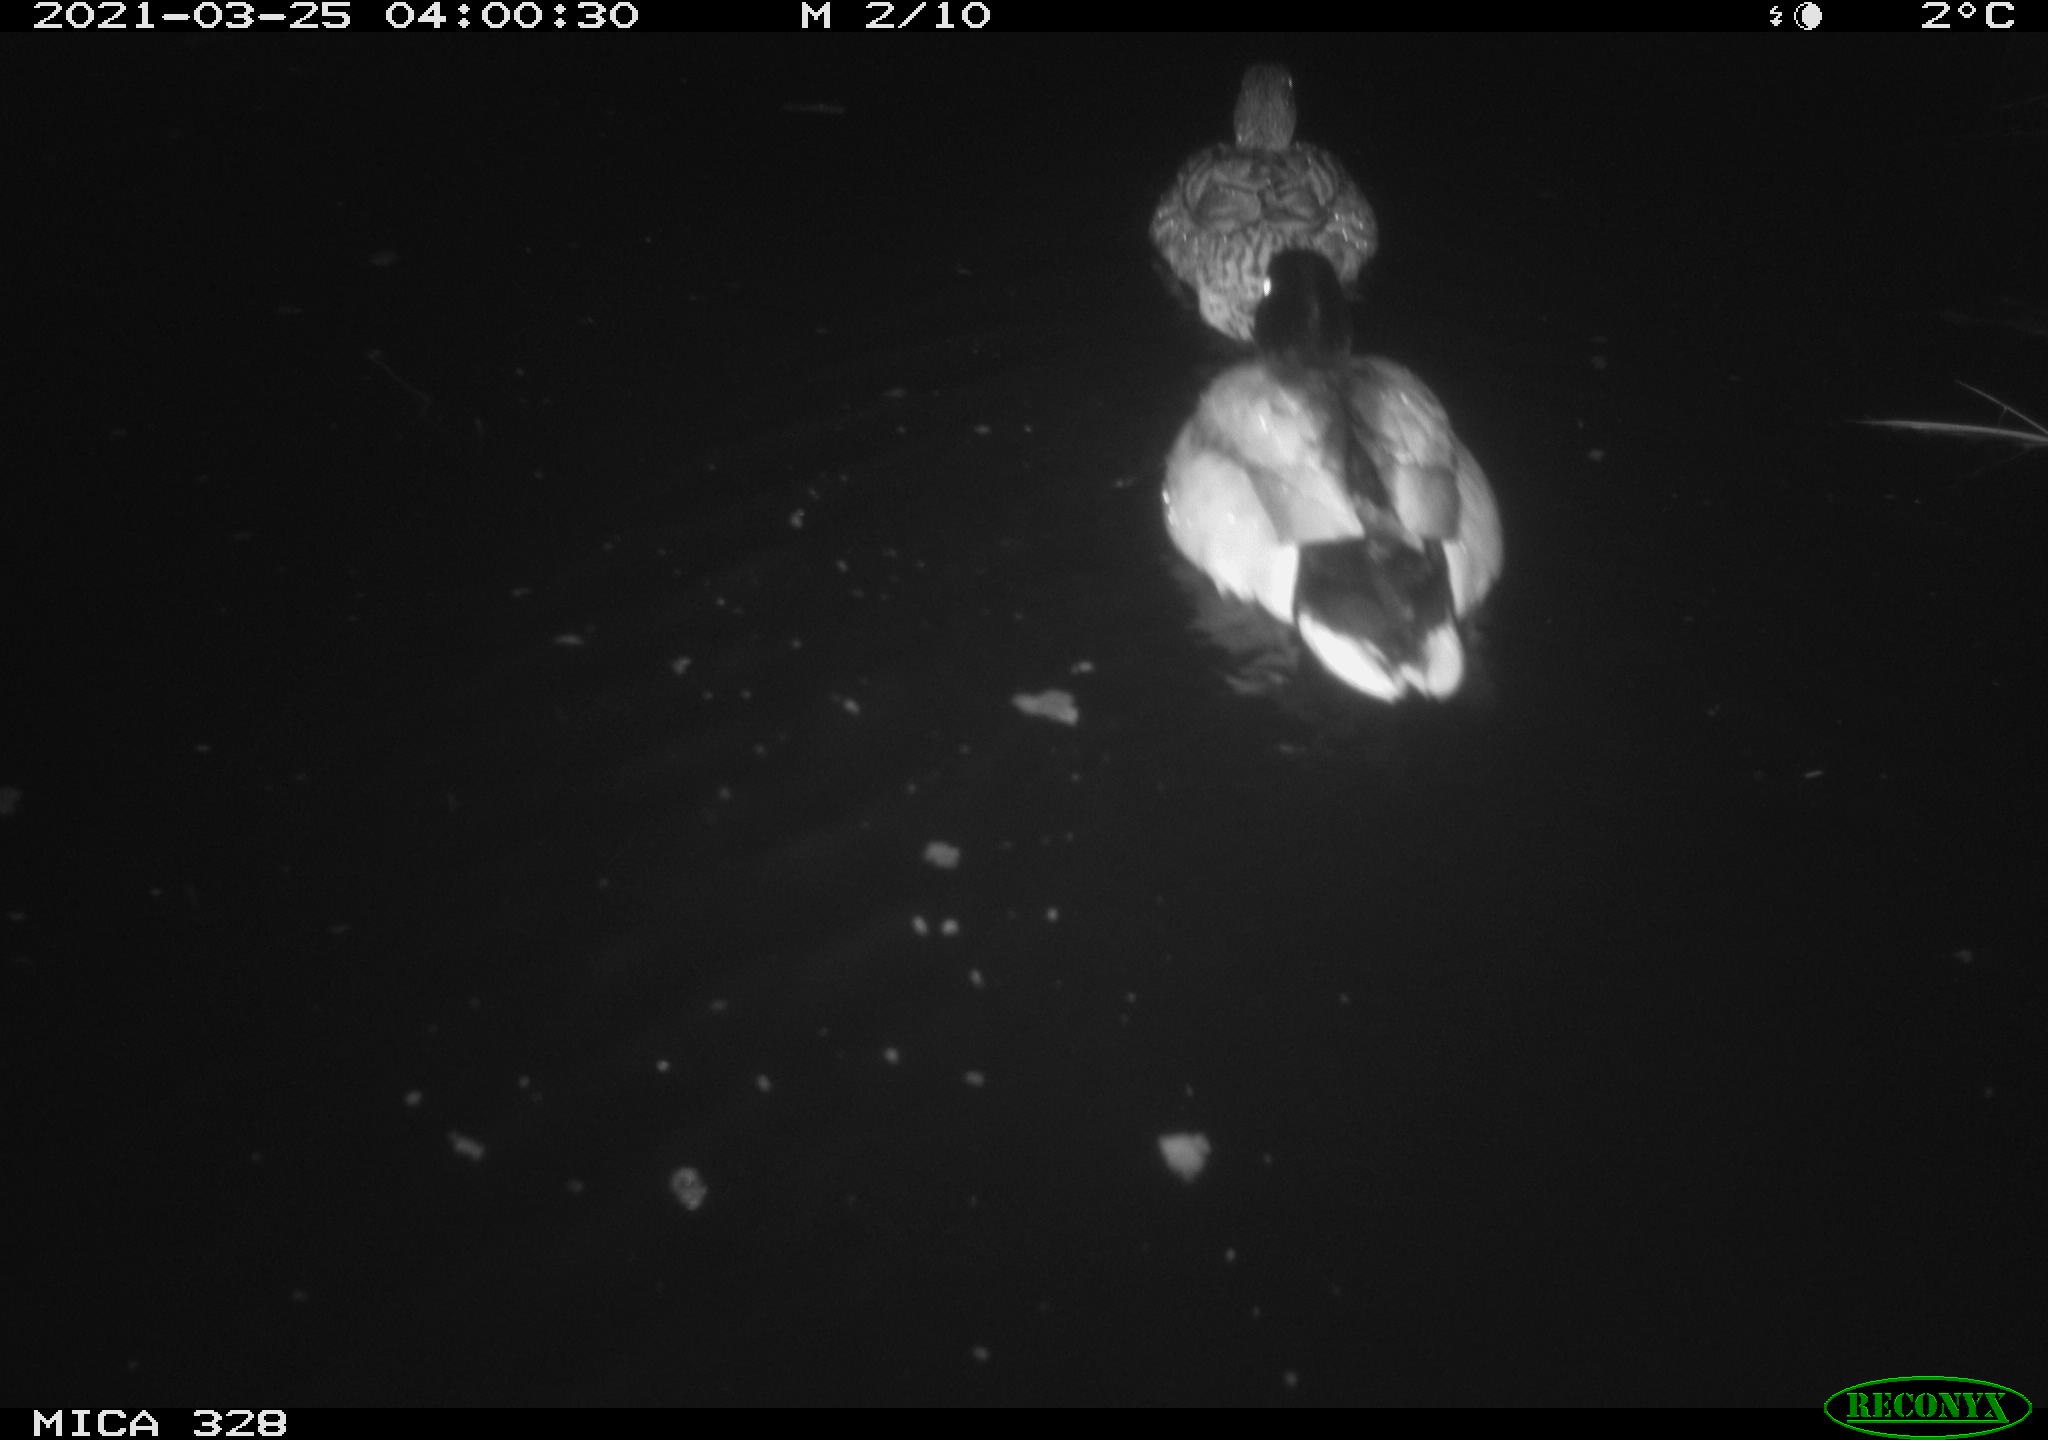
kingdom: Animalia
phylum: Chordata
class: Mammalia
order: Rodentia
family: Cricetidae
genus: Ondatra
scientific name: Ondatra zibethicus
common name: Muskrat
